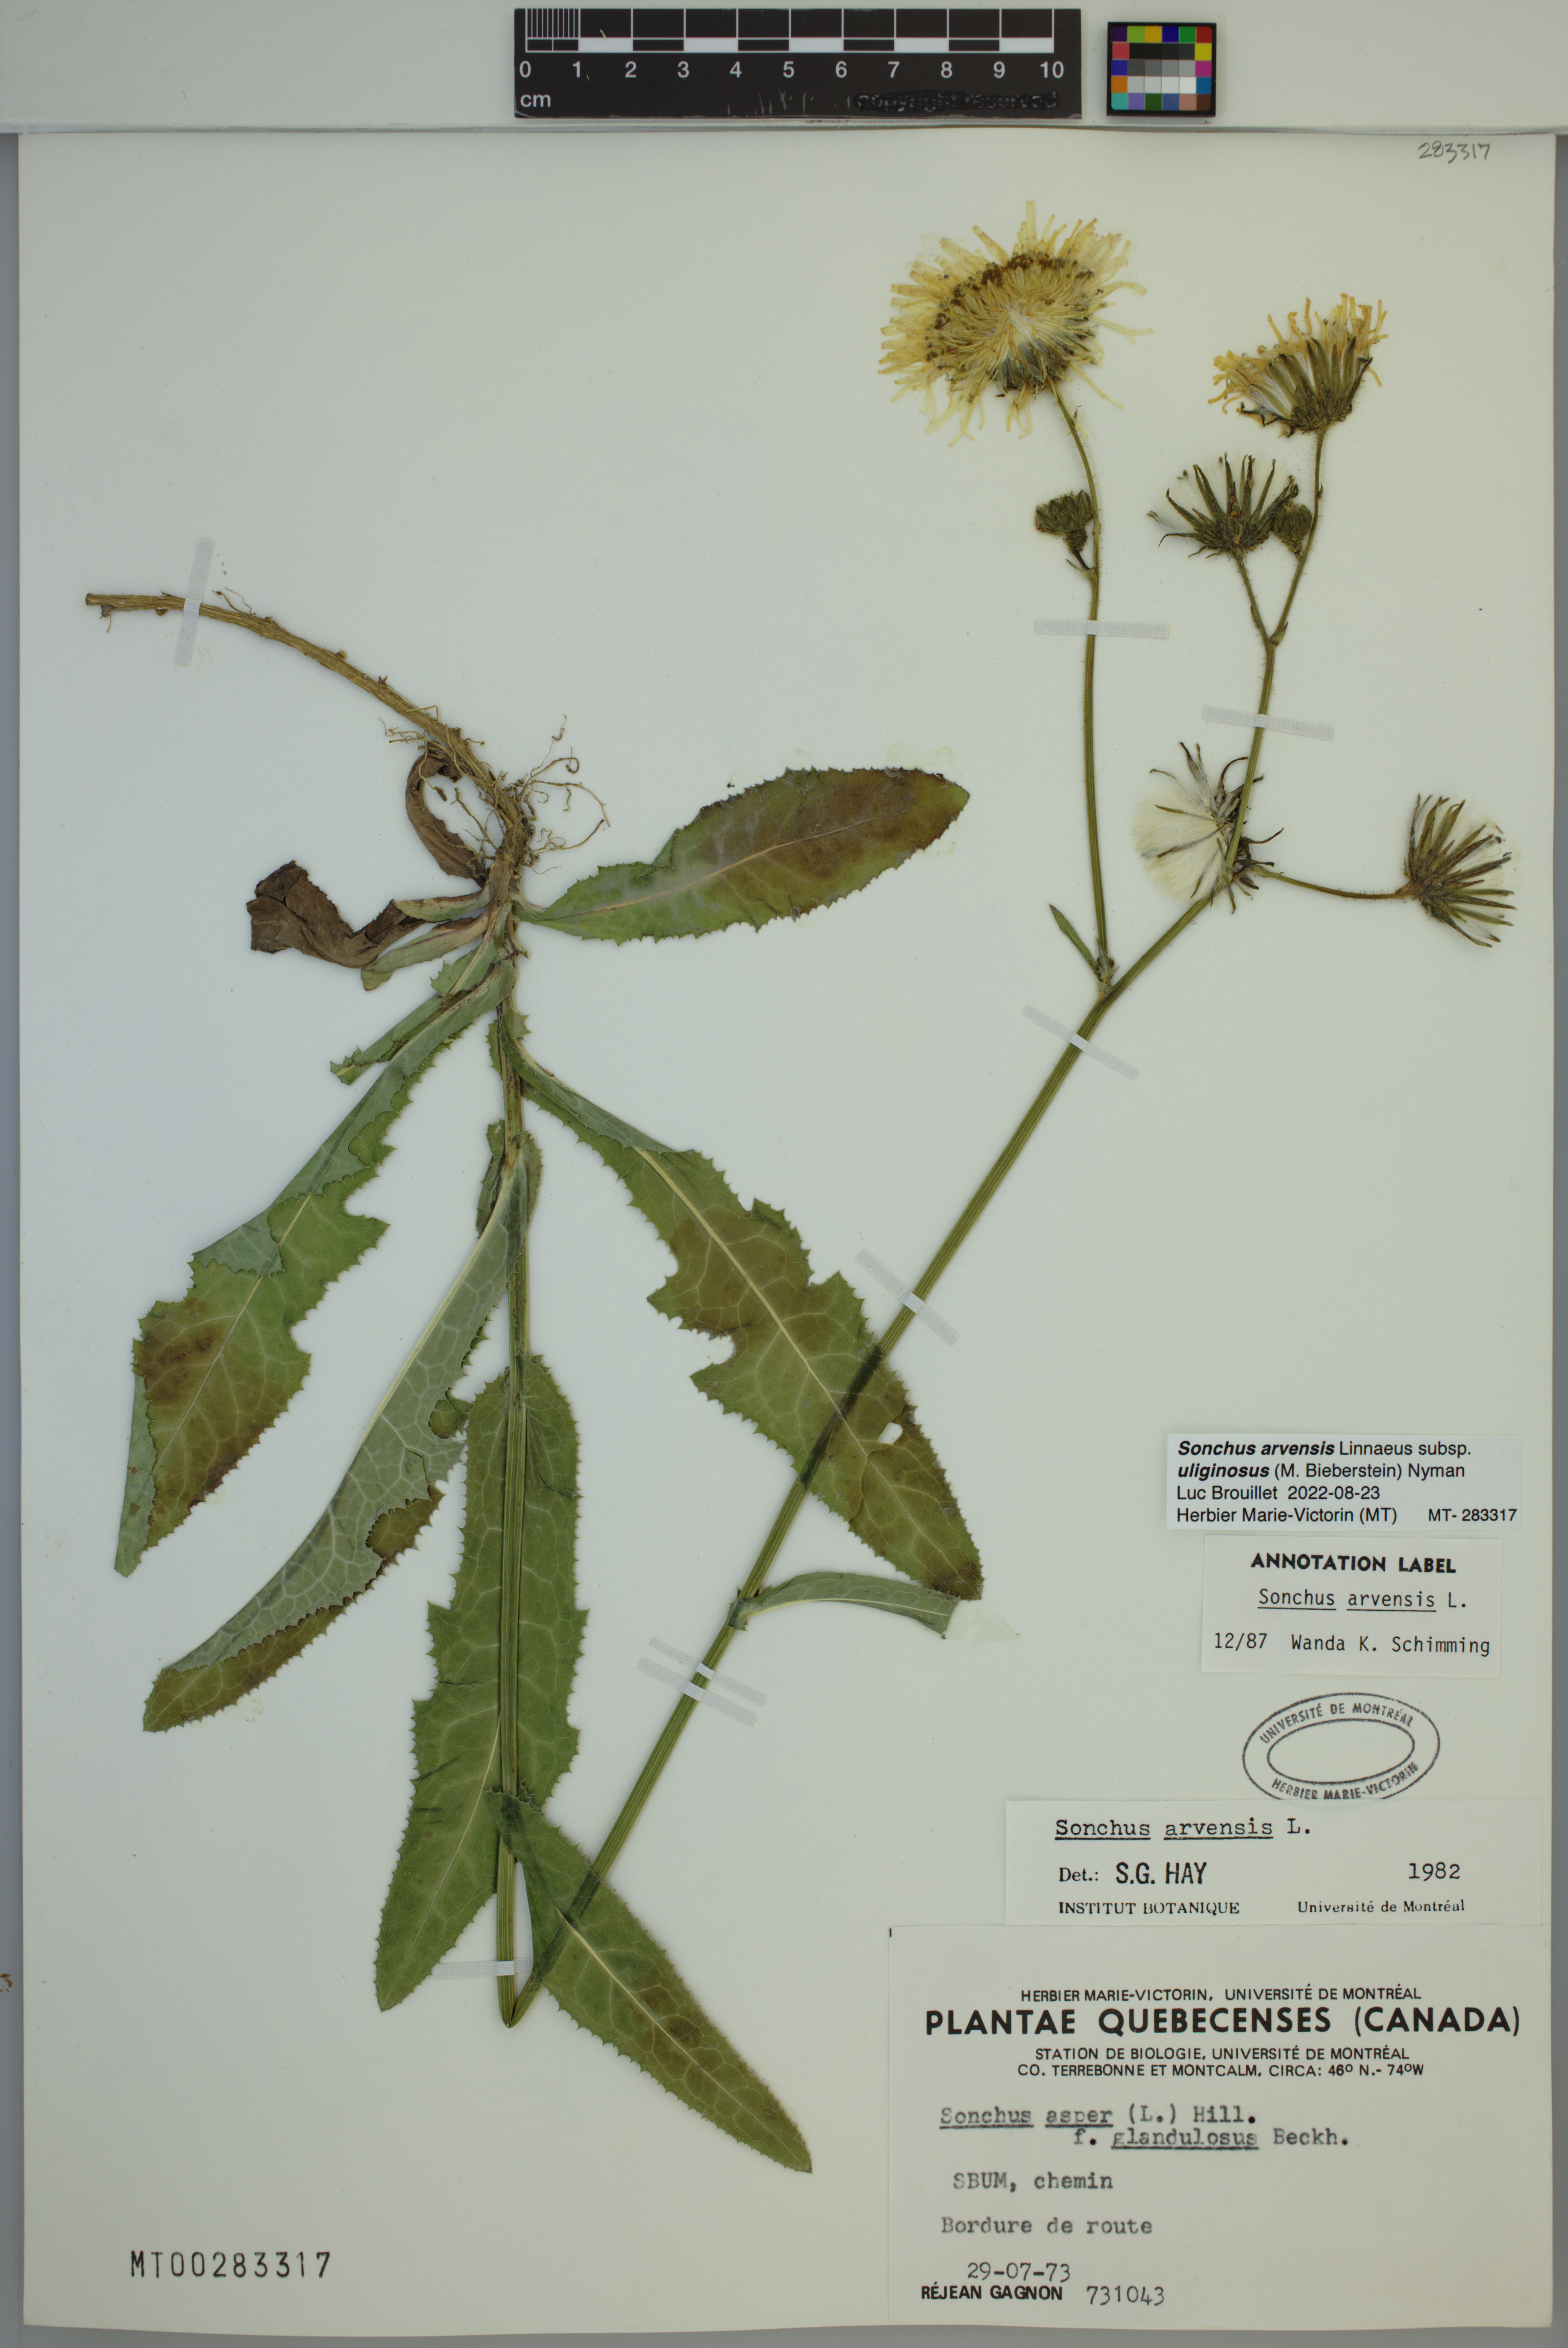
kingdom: Plantae
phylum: Tracheophyta
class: Magnoliopsida
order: Asterales
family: Asteraceae
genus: Sonchus
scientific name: Sonchus arvensis
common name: Perennial sow-thistle
